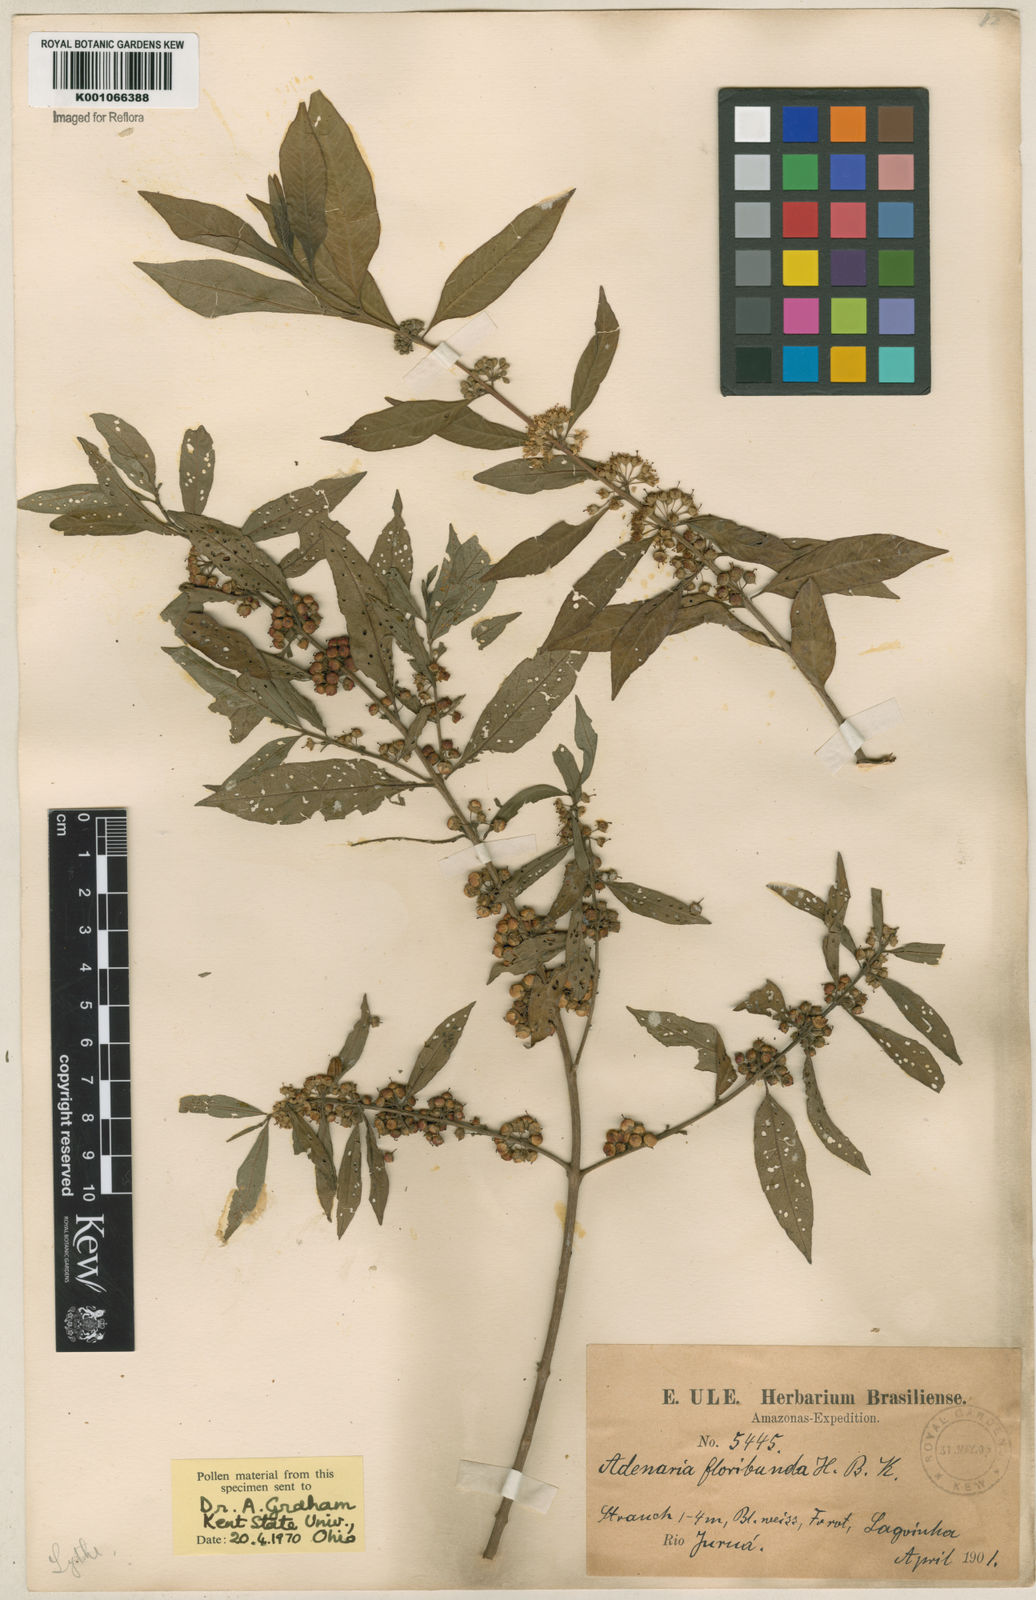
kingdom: Plantae
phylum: Tracheophyta
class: Magnoliopsida
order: Myrtales
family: Lythraceae
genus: Adenaria
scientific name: Adenaria floribunda
